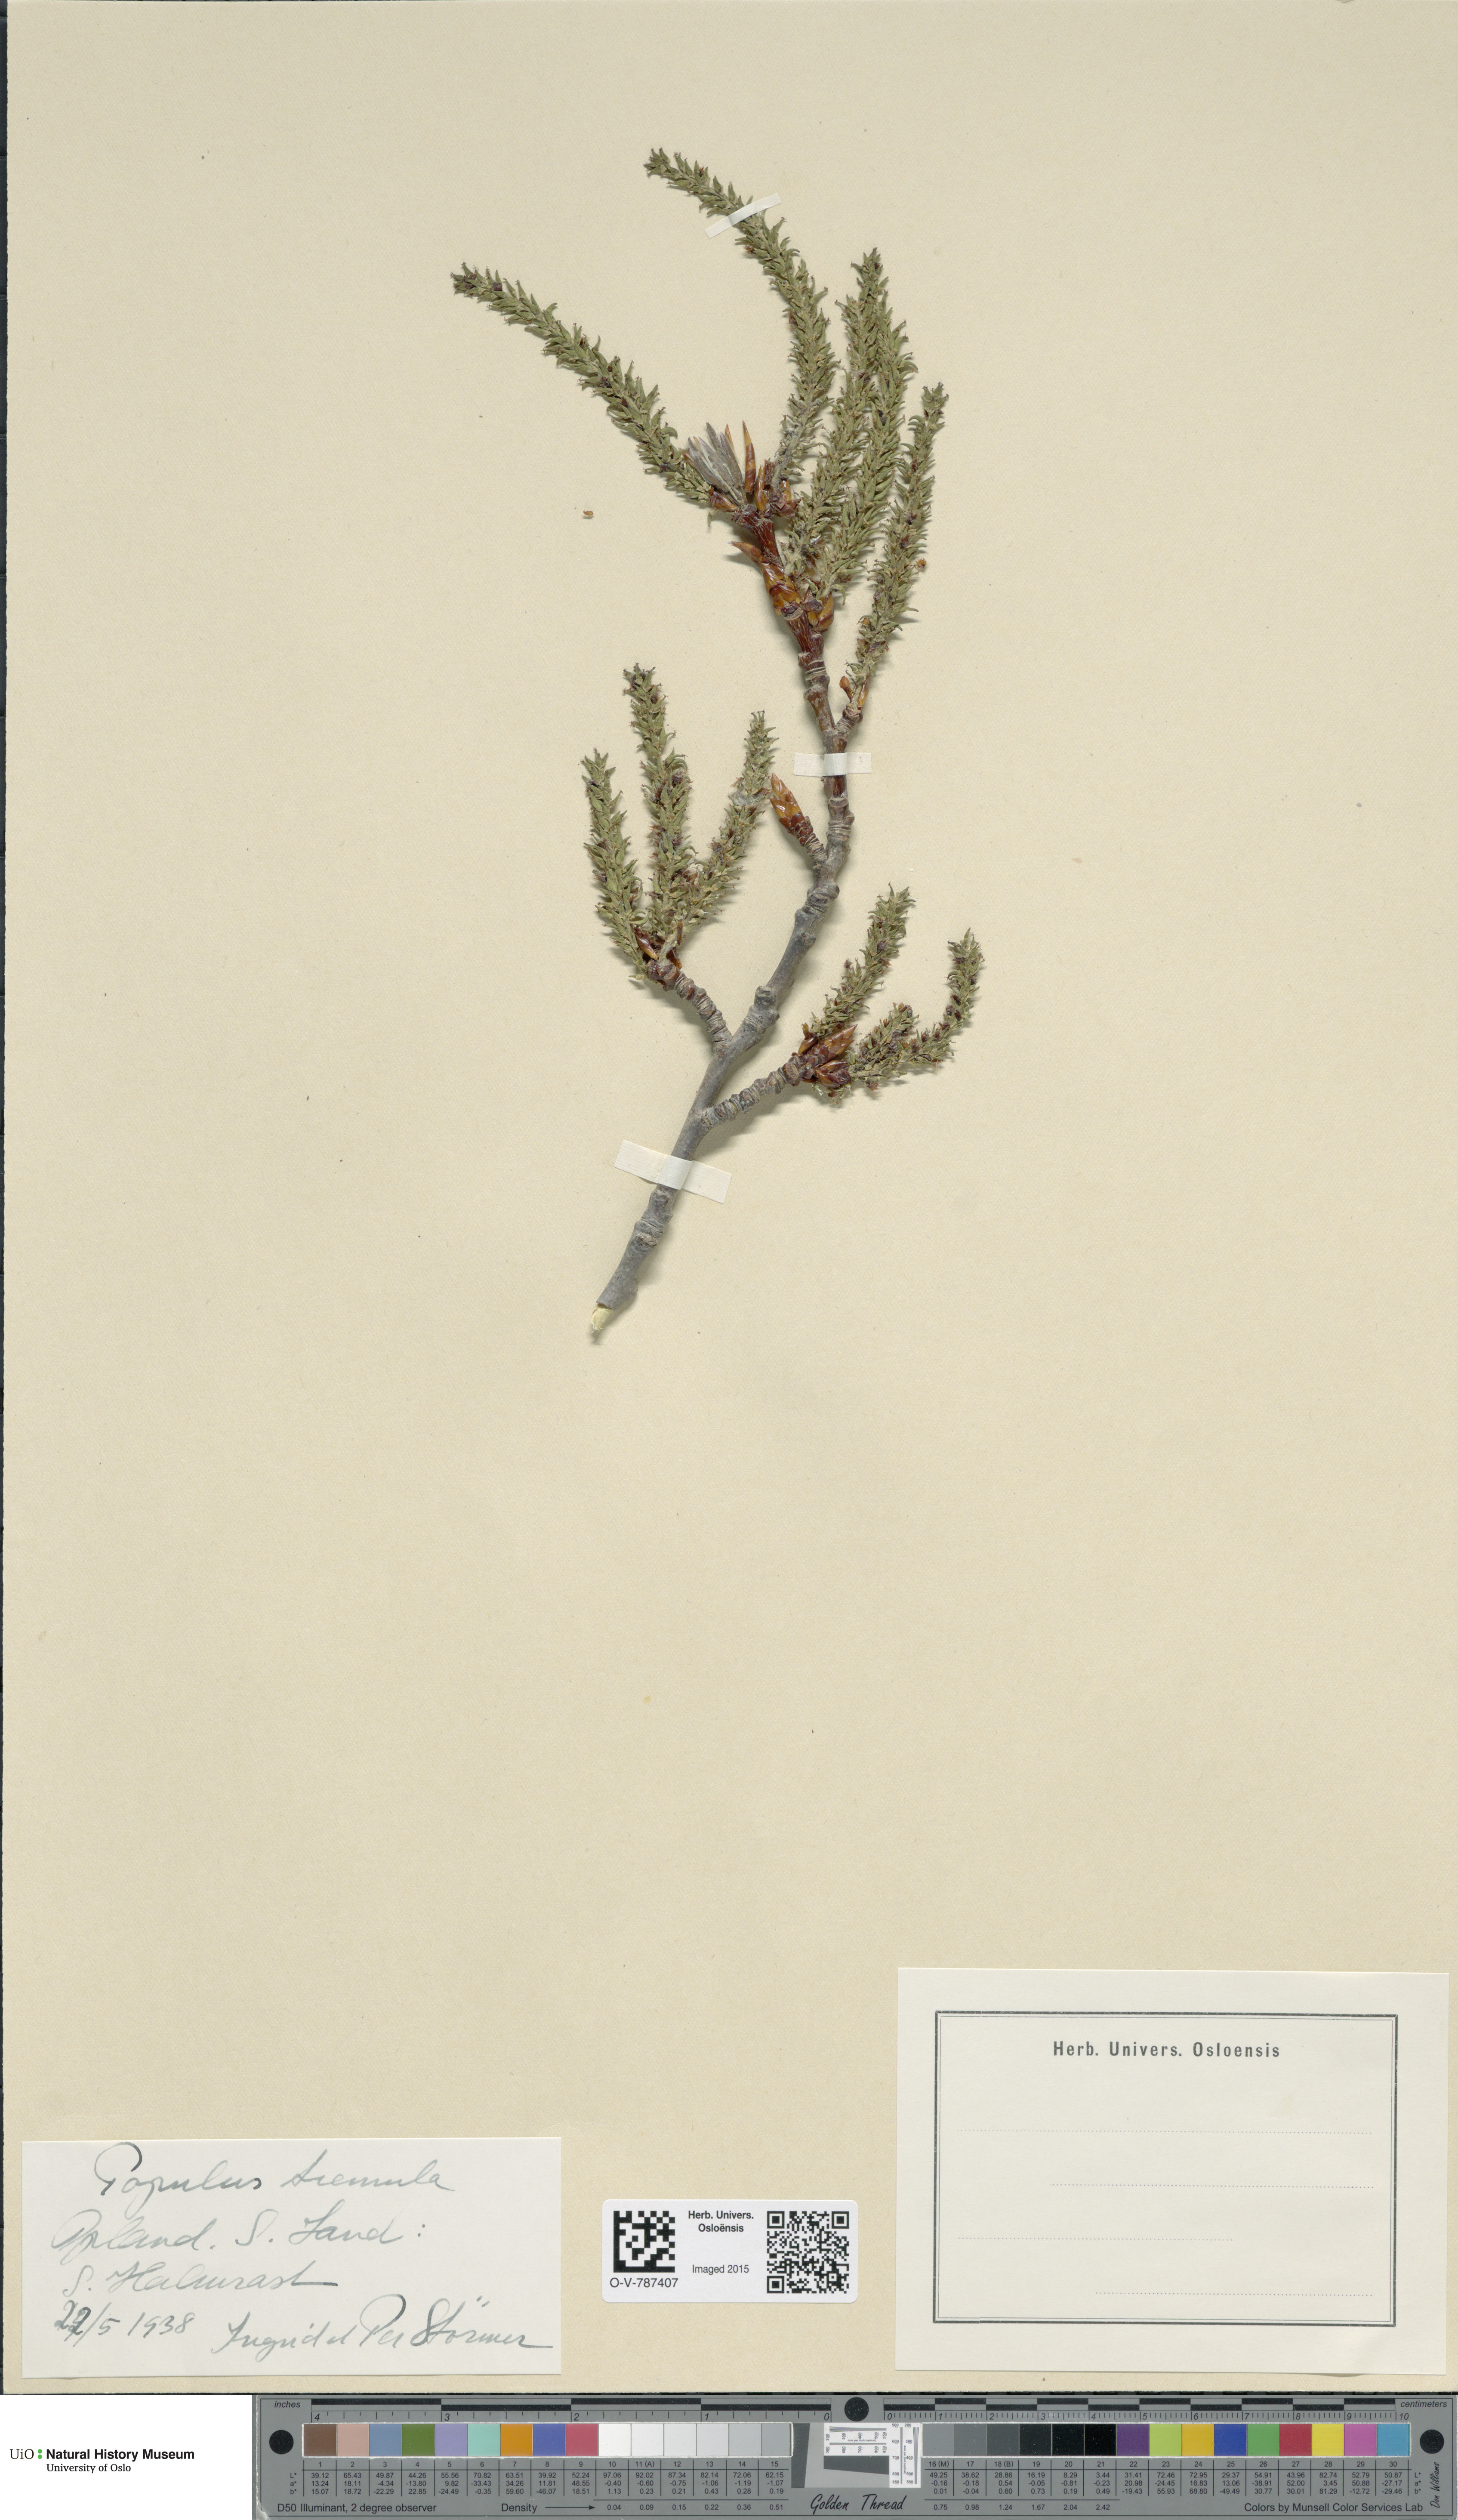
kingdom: Plantae
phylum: Tracheophyta
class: Magnoliopsida
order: Malpighiales
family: Salicaceae
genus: Populus
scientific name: Populus tremula
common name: European aspen
